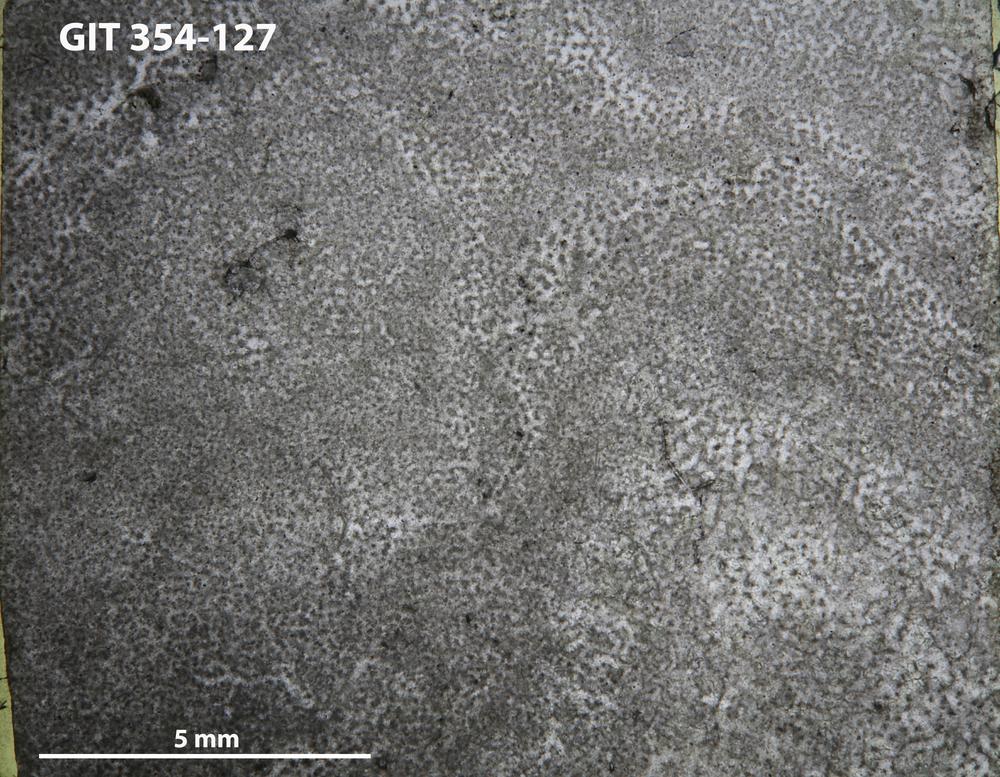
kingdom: Animalia
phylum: Porifera
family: Clathrodictyidae
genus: Clathrodictyon
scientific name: Clathrodictyon boreale
